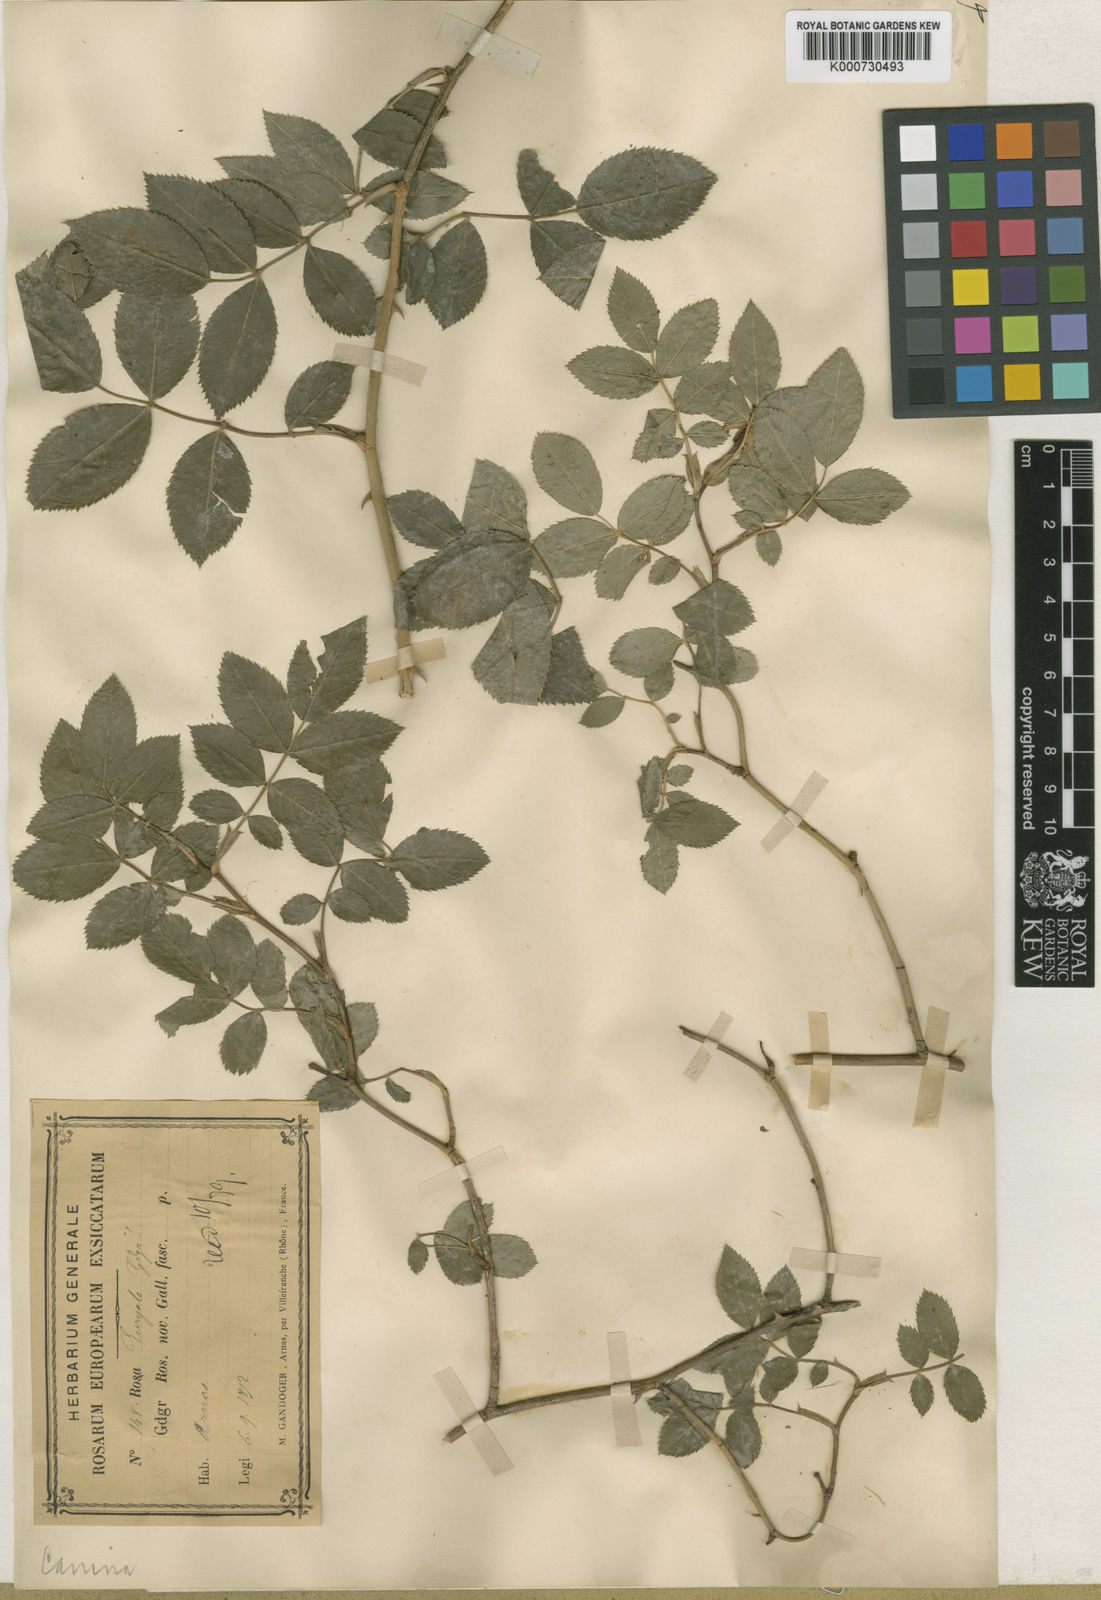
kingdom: Plantae
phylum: Tracheophyta
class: Magnoliopsida
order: Rosales
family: Rosaceae
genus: Rosa
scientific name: Rosa canina
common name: Dog rose
